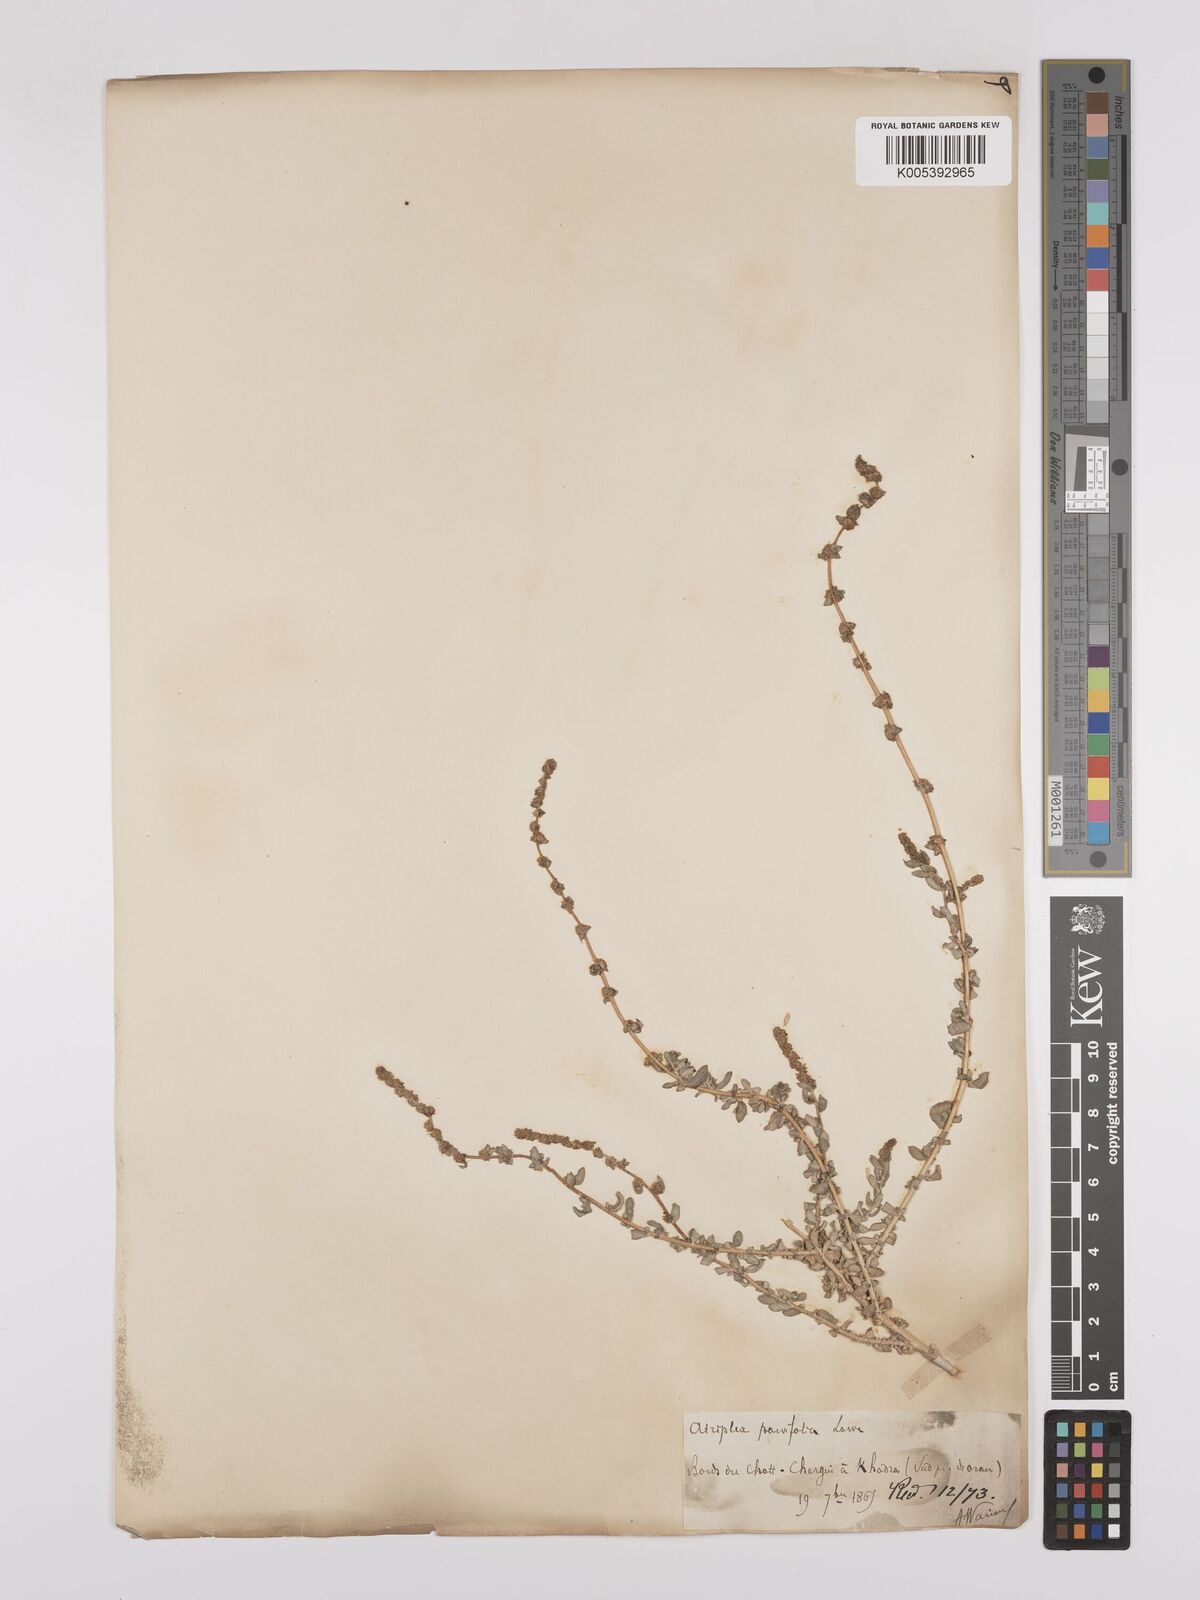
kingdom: Plantae
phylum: Tracheophyta
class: Magnoliopsida
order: Caryophyllales
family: Amaranthaceae
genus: Atriplex
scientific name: Atriplex
